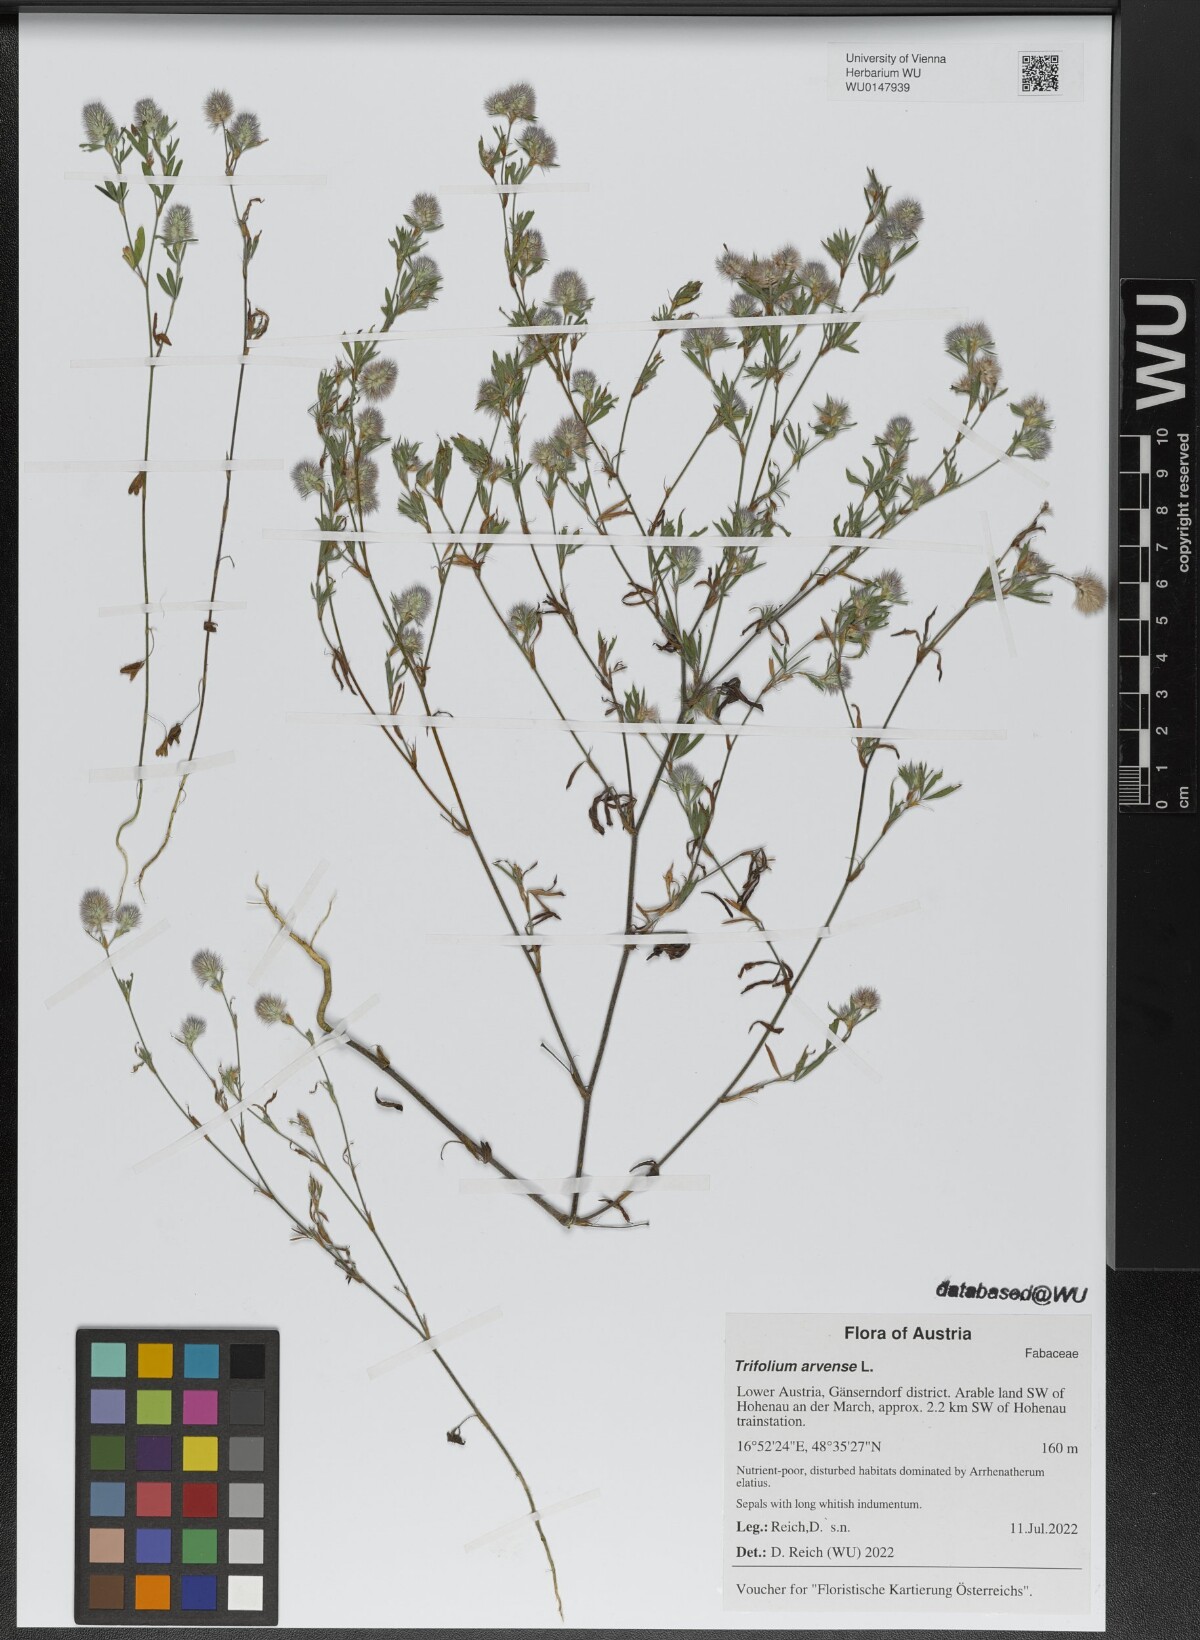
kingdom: Plantae
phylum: Tracheophyta
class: Magnoliopsida
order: Fabales
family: Fabaceae
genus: Trifolium
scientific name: Trifolium arvense
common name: Hare's-foot clover
